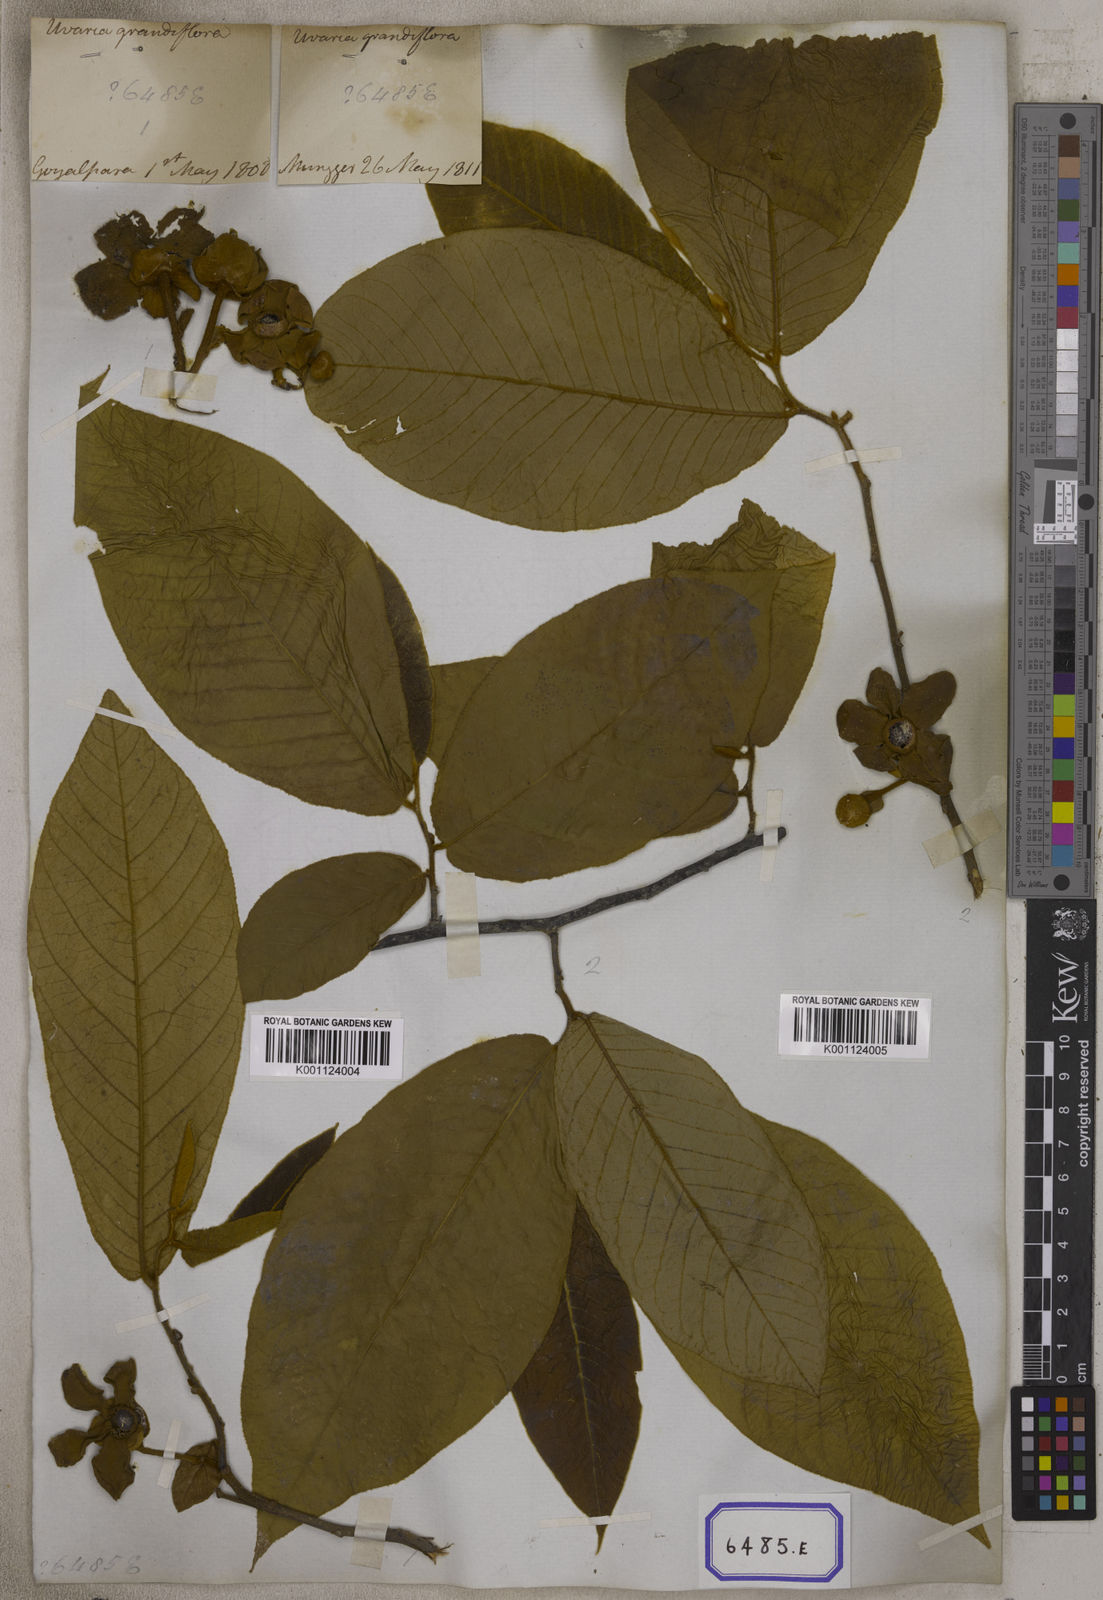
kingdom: Plantae
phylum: Tracheophyta
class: Magnoliopsida
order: Magnoliales
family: Annonaceae
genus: Uvaria
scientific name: Uvaria grandiflora
